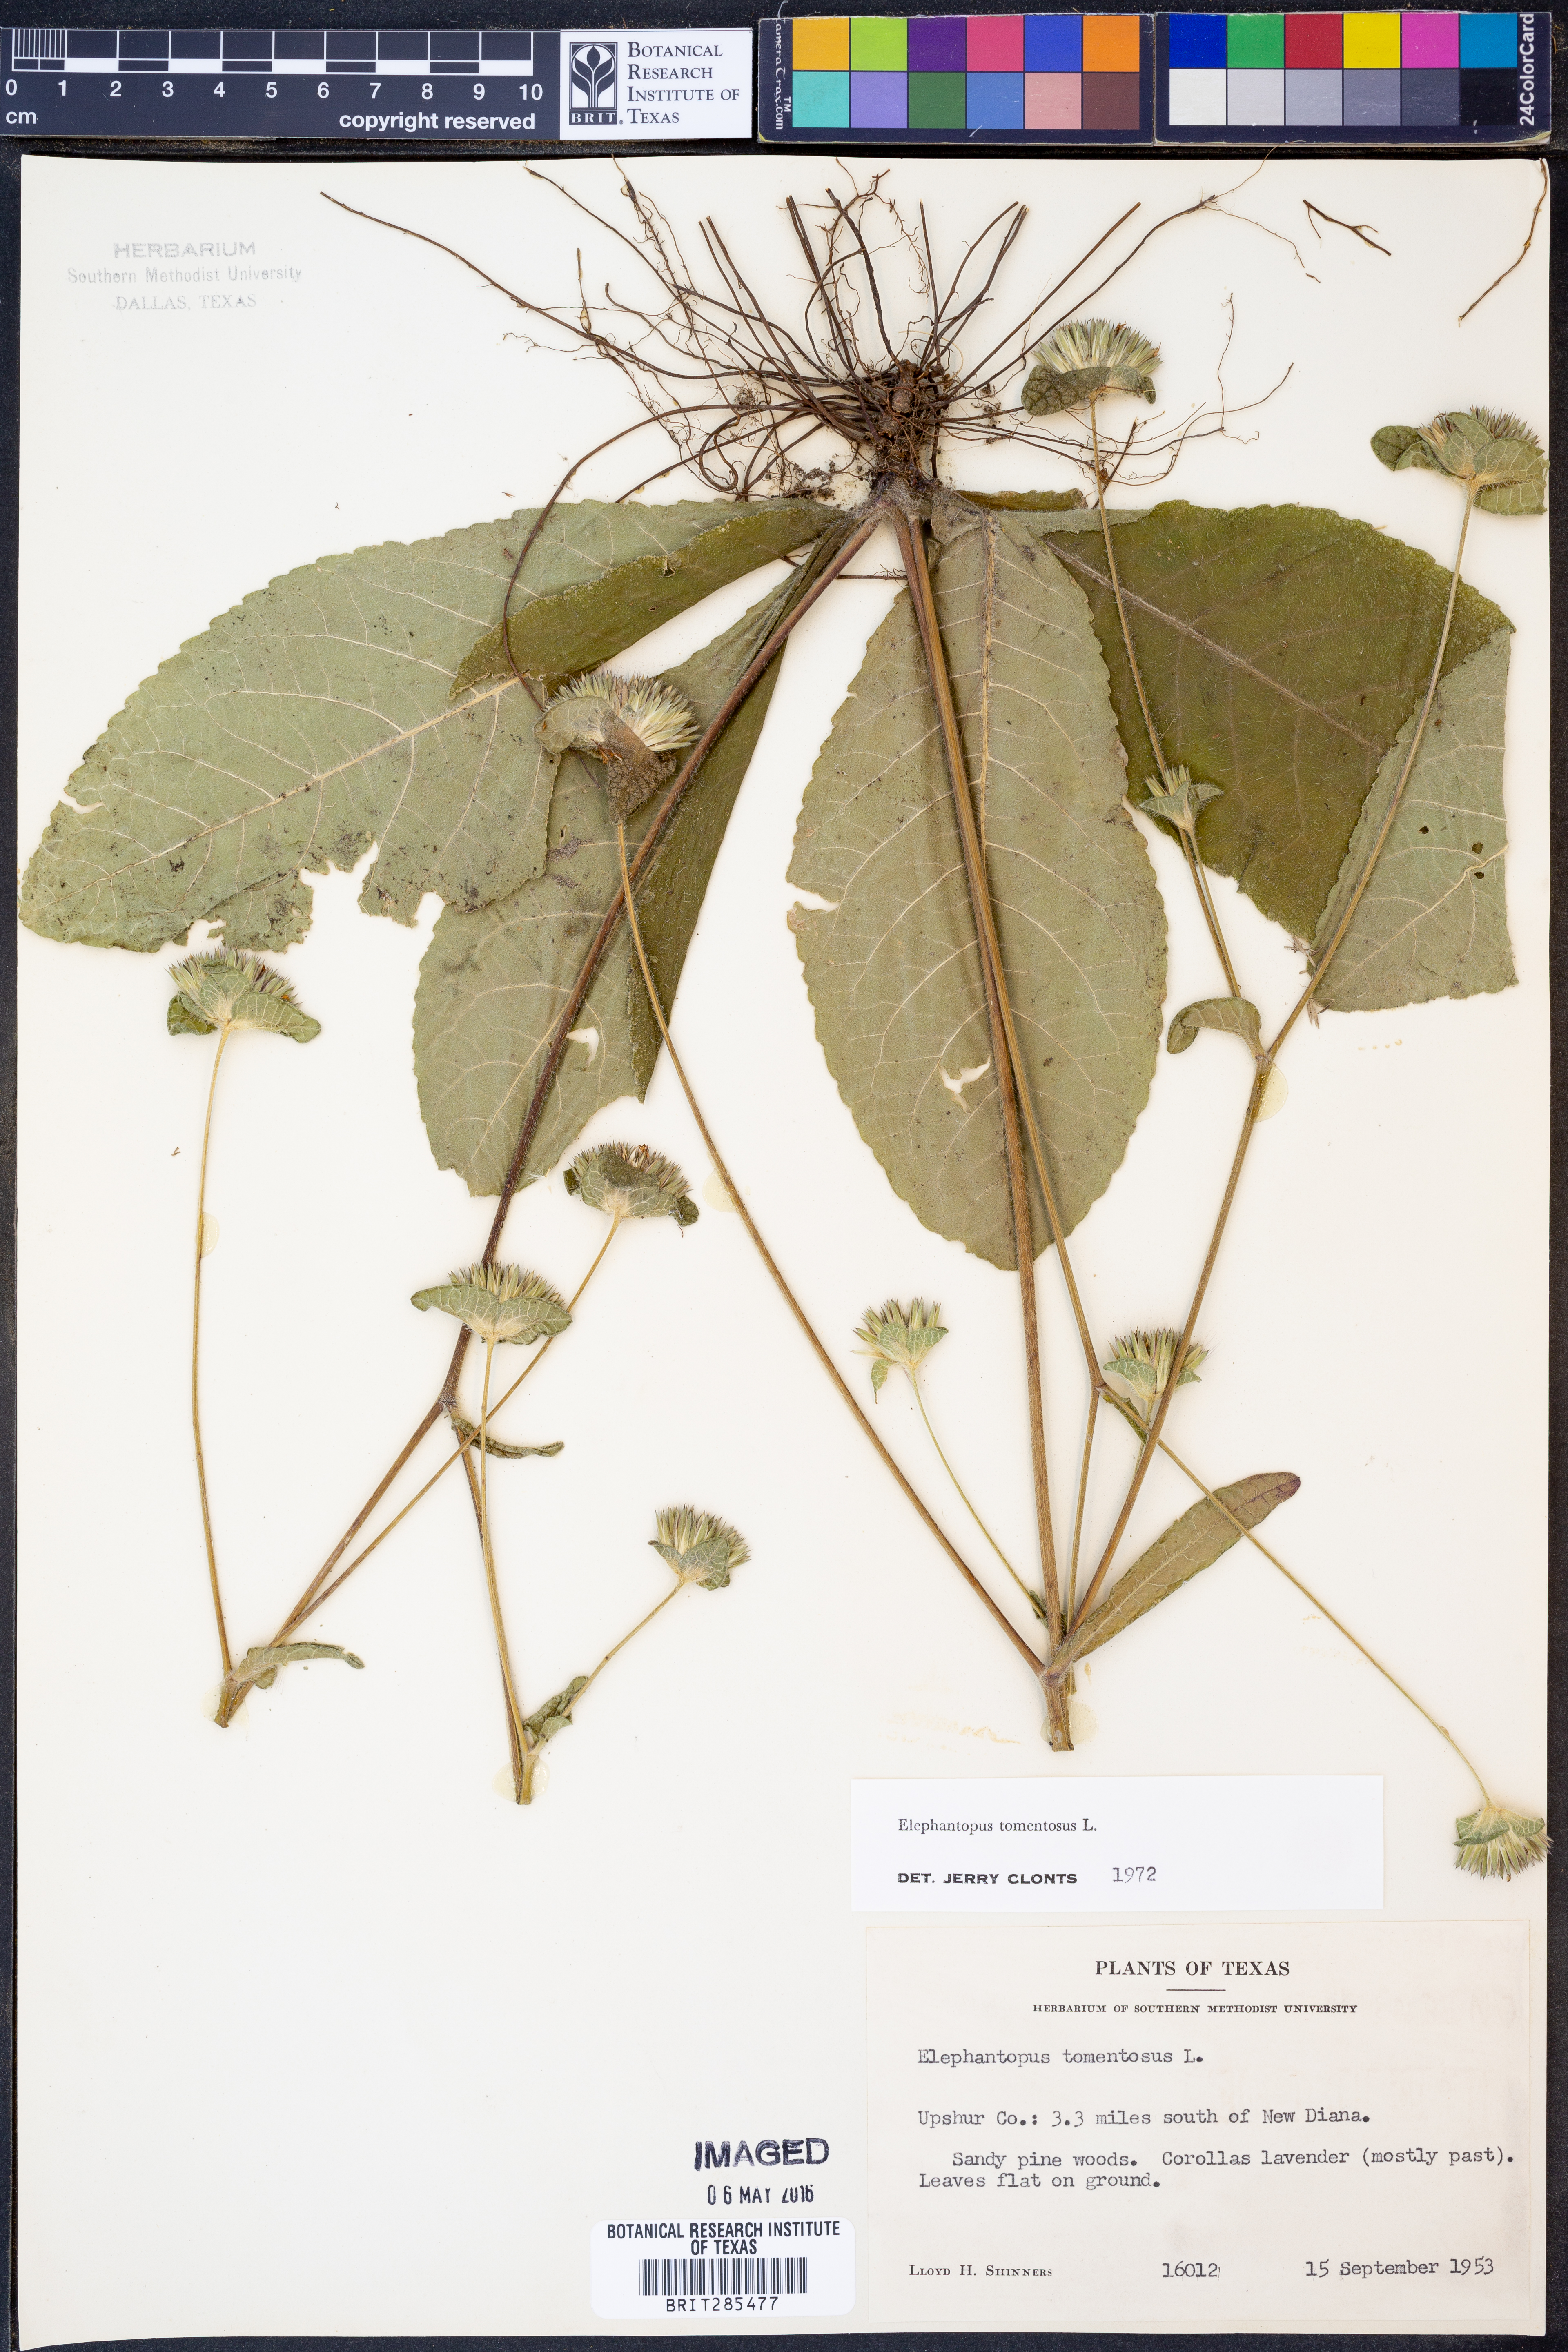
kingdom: Plantae
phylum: Tracheophyta
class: Magnoliopsida
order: Asterales
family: Asteraceae
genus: Elephantopus
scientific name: Elephantopus tomentosus
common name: Tobacco-weed
